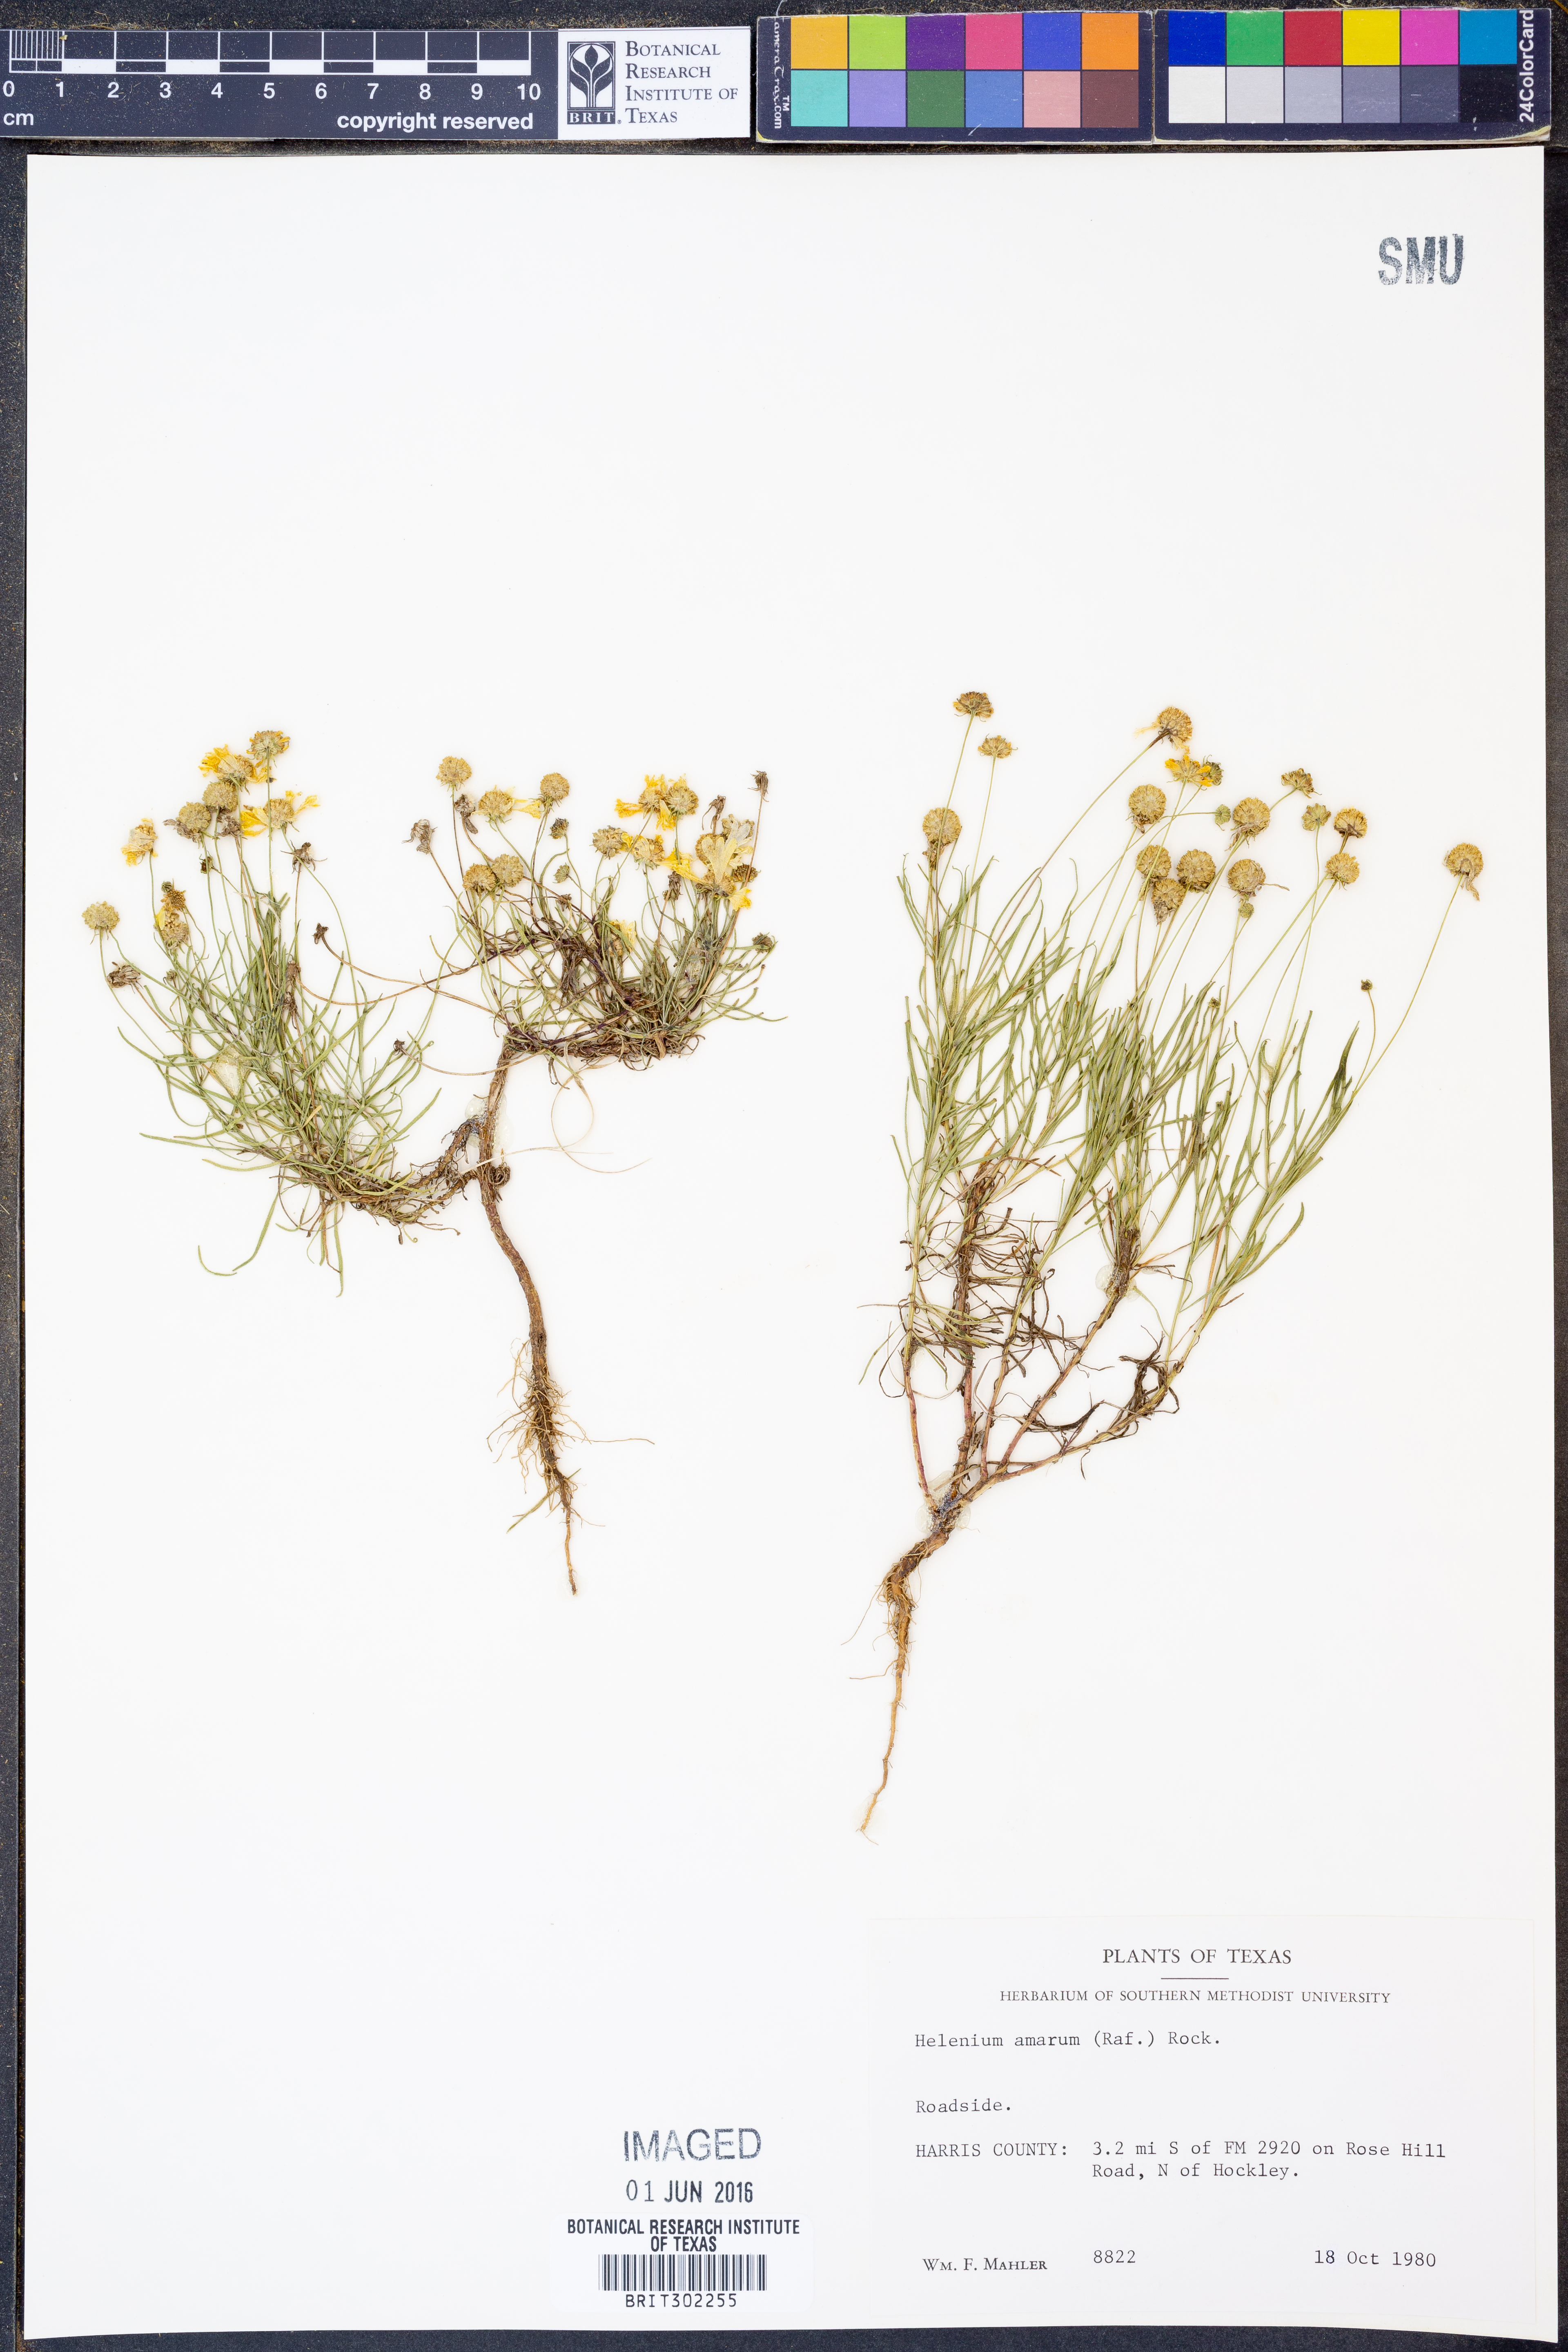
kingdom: Plantae
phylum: Tracheophyta
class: Magnoliopsida
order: Asterales
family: Asteraceae
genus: Helenium
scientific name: Helenium amarum
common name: Bitter sneezeweed
